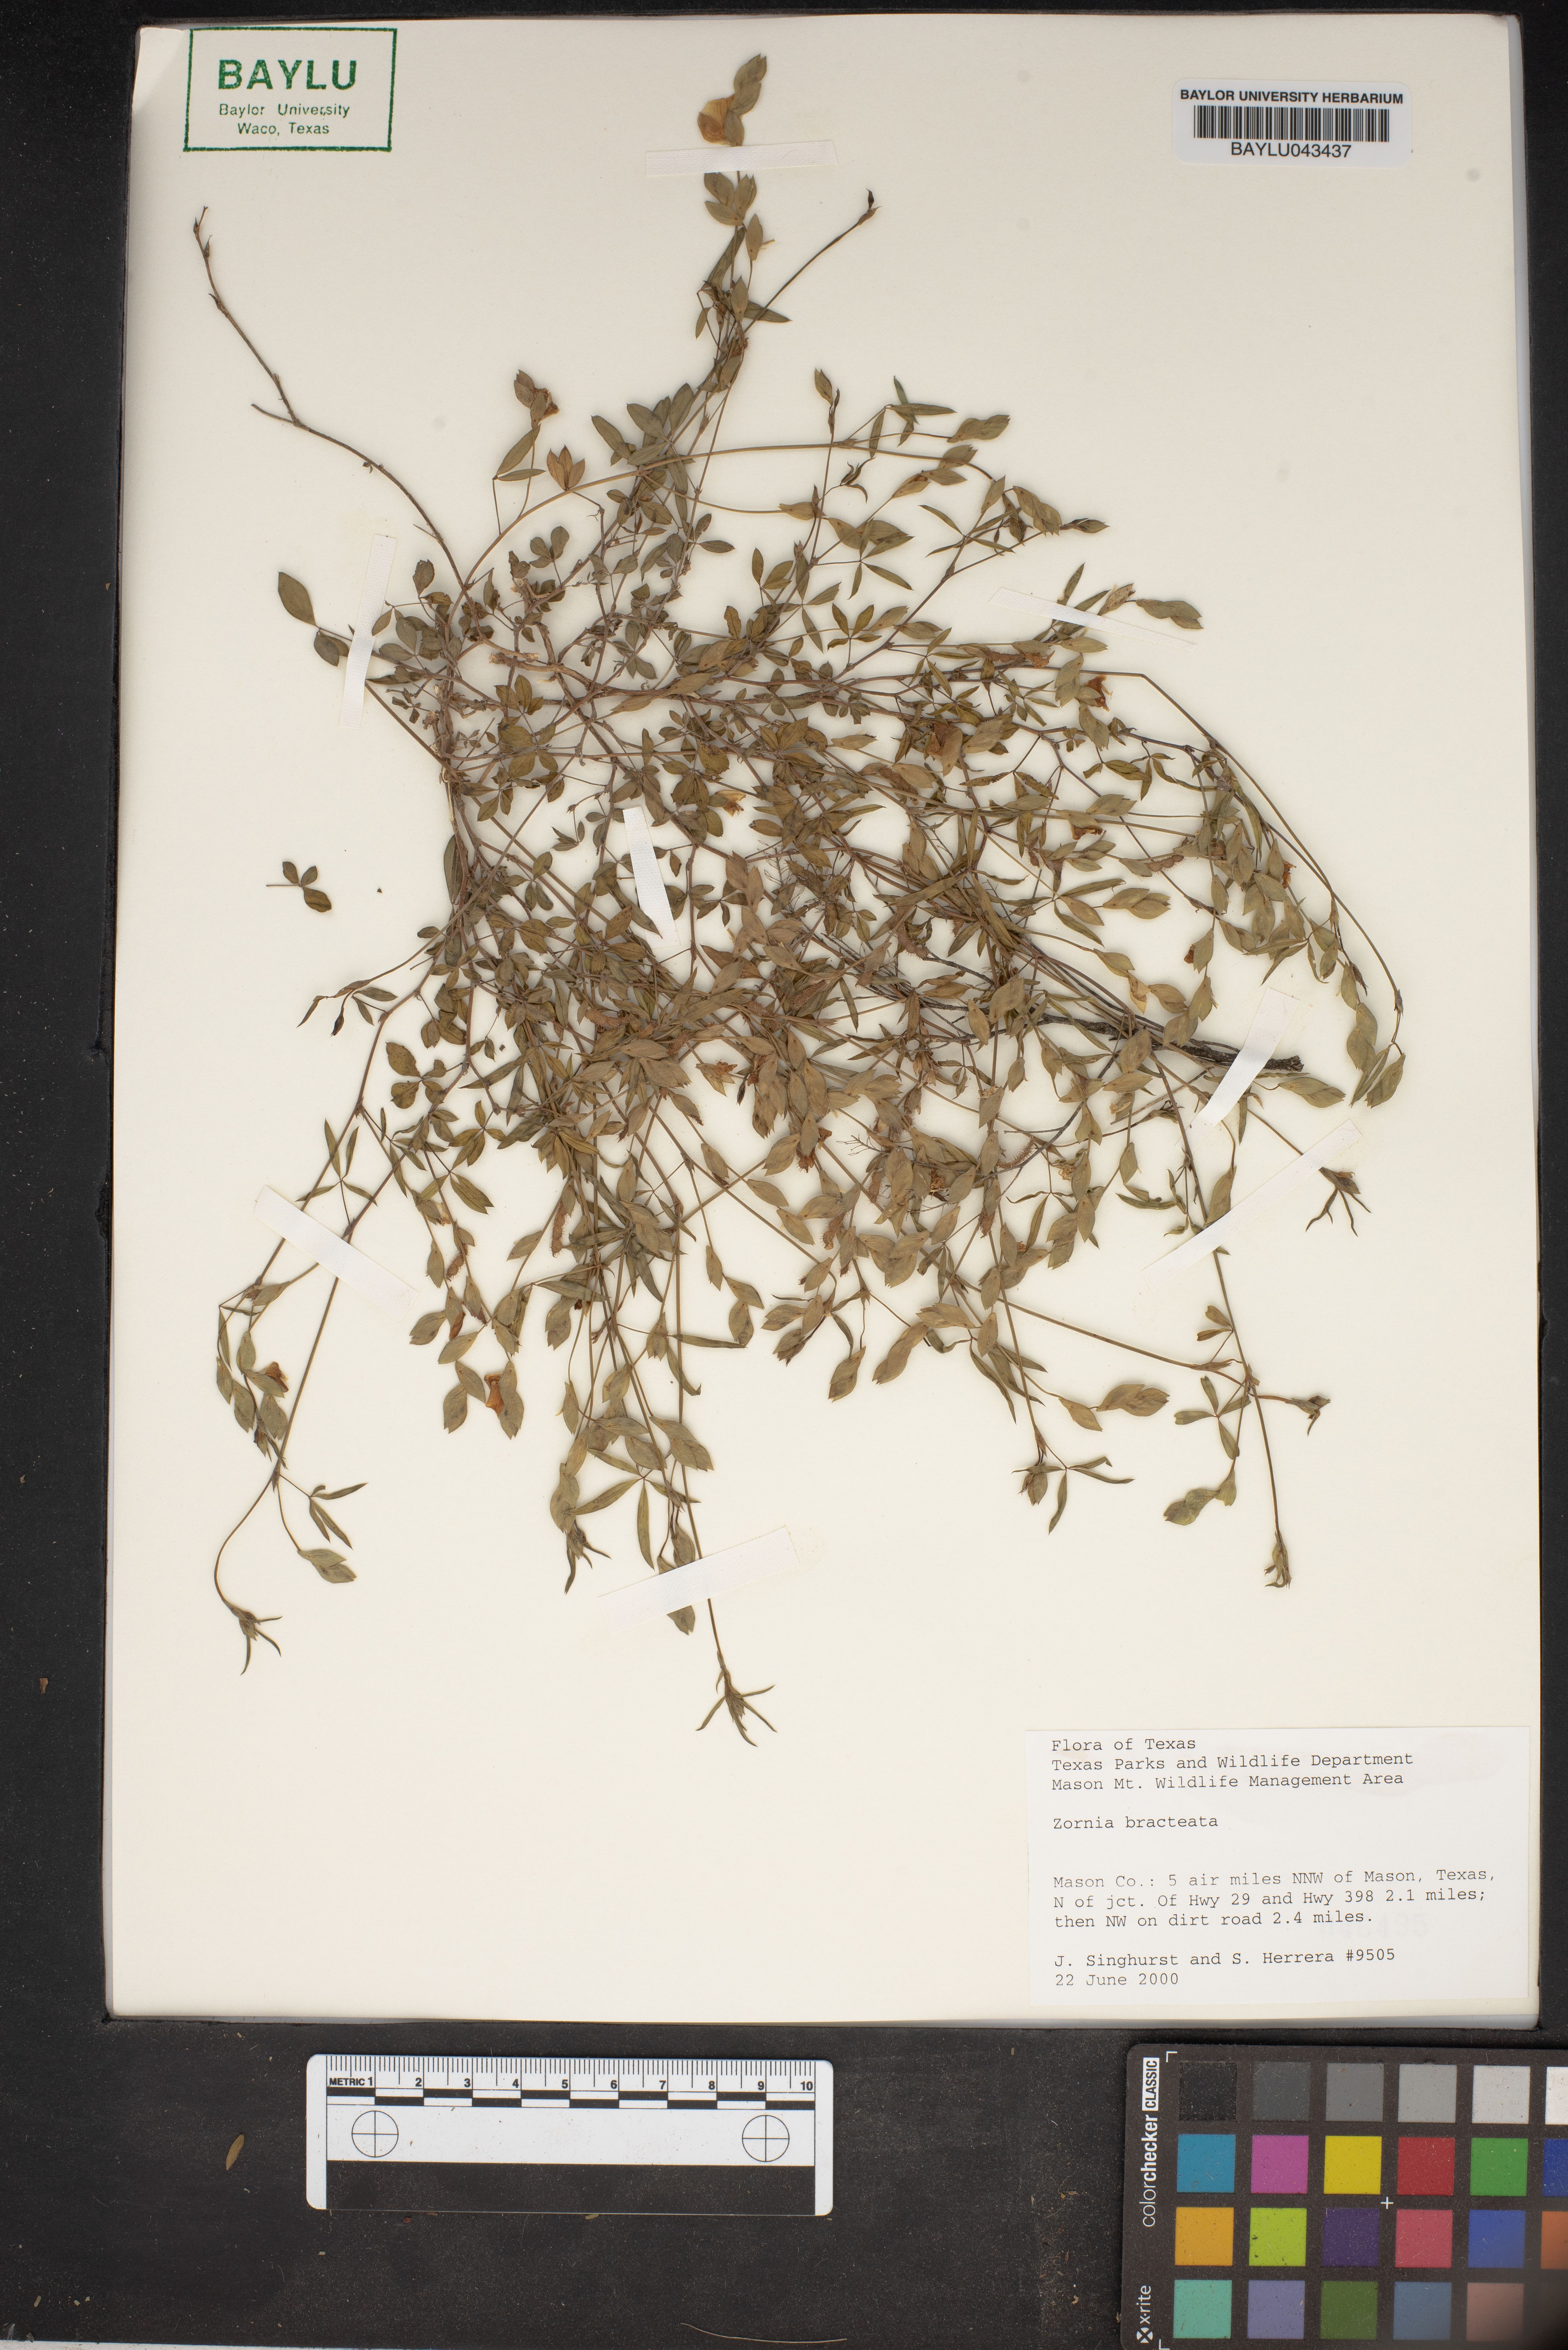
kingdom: Plantae
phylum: Tracheophyta
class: Magnoliopsida
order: Fabales
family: Fabaceae
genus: Zornia
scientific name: Zornia bracteata
